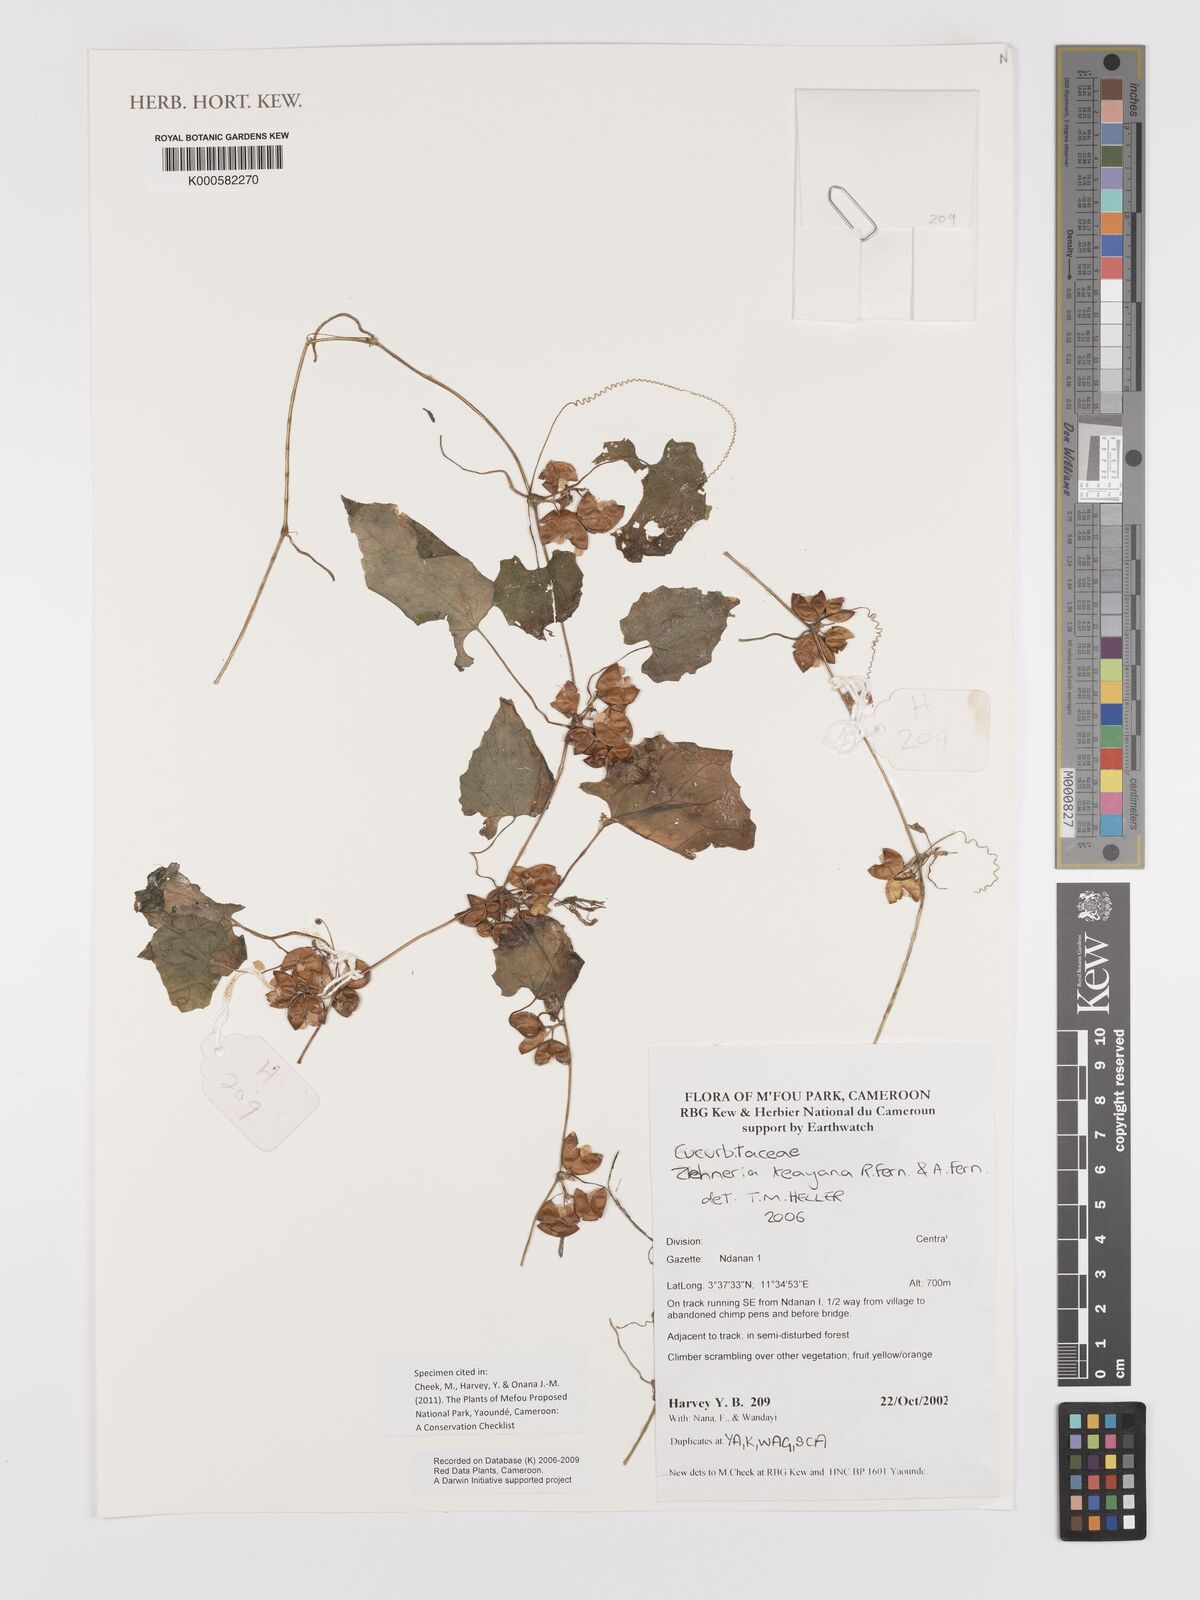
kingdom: Plantae
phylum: Tracheophyta
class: Magnoliopsida
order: Cucurbitales
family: Cucurbitaceae
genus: Zehneria
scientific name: Zehneria keayana
